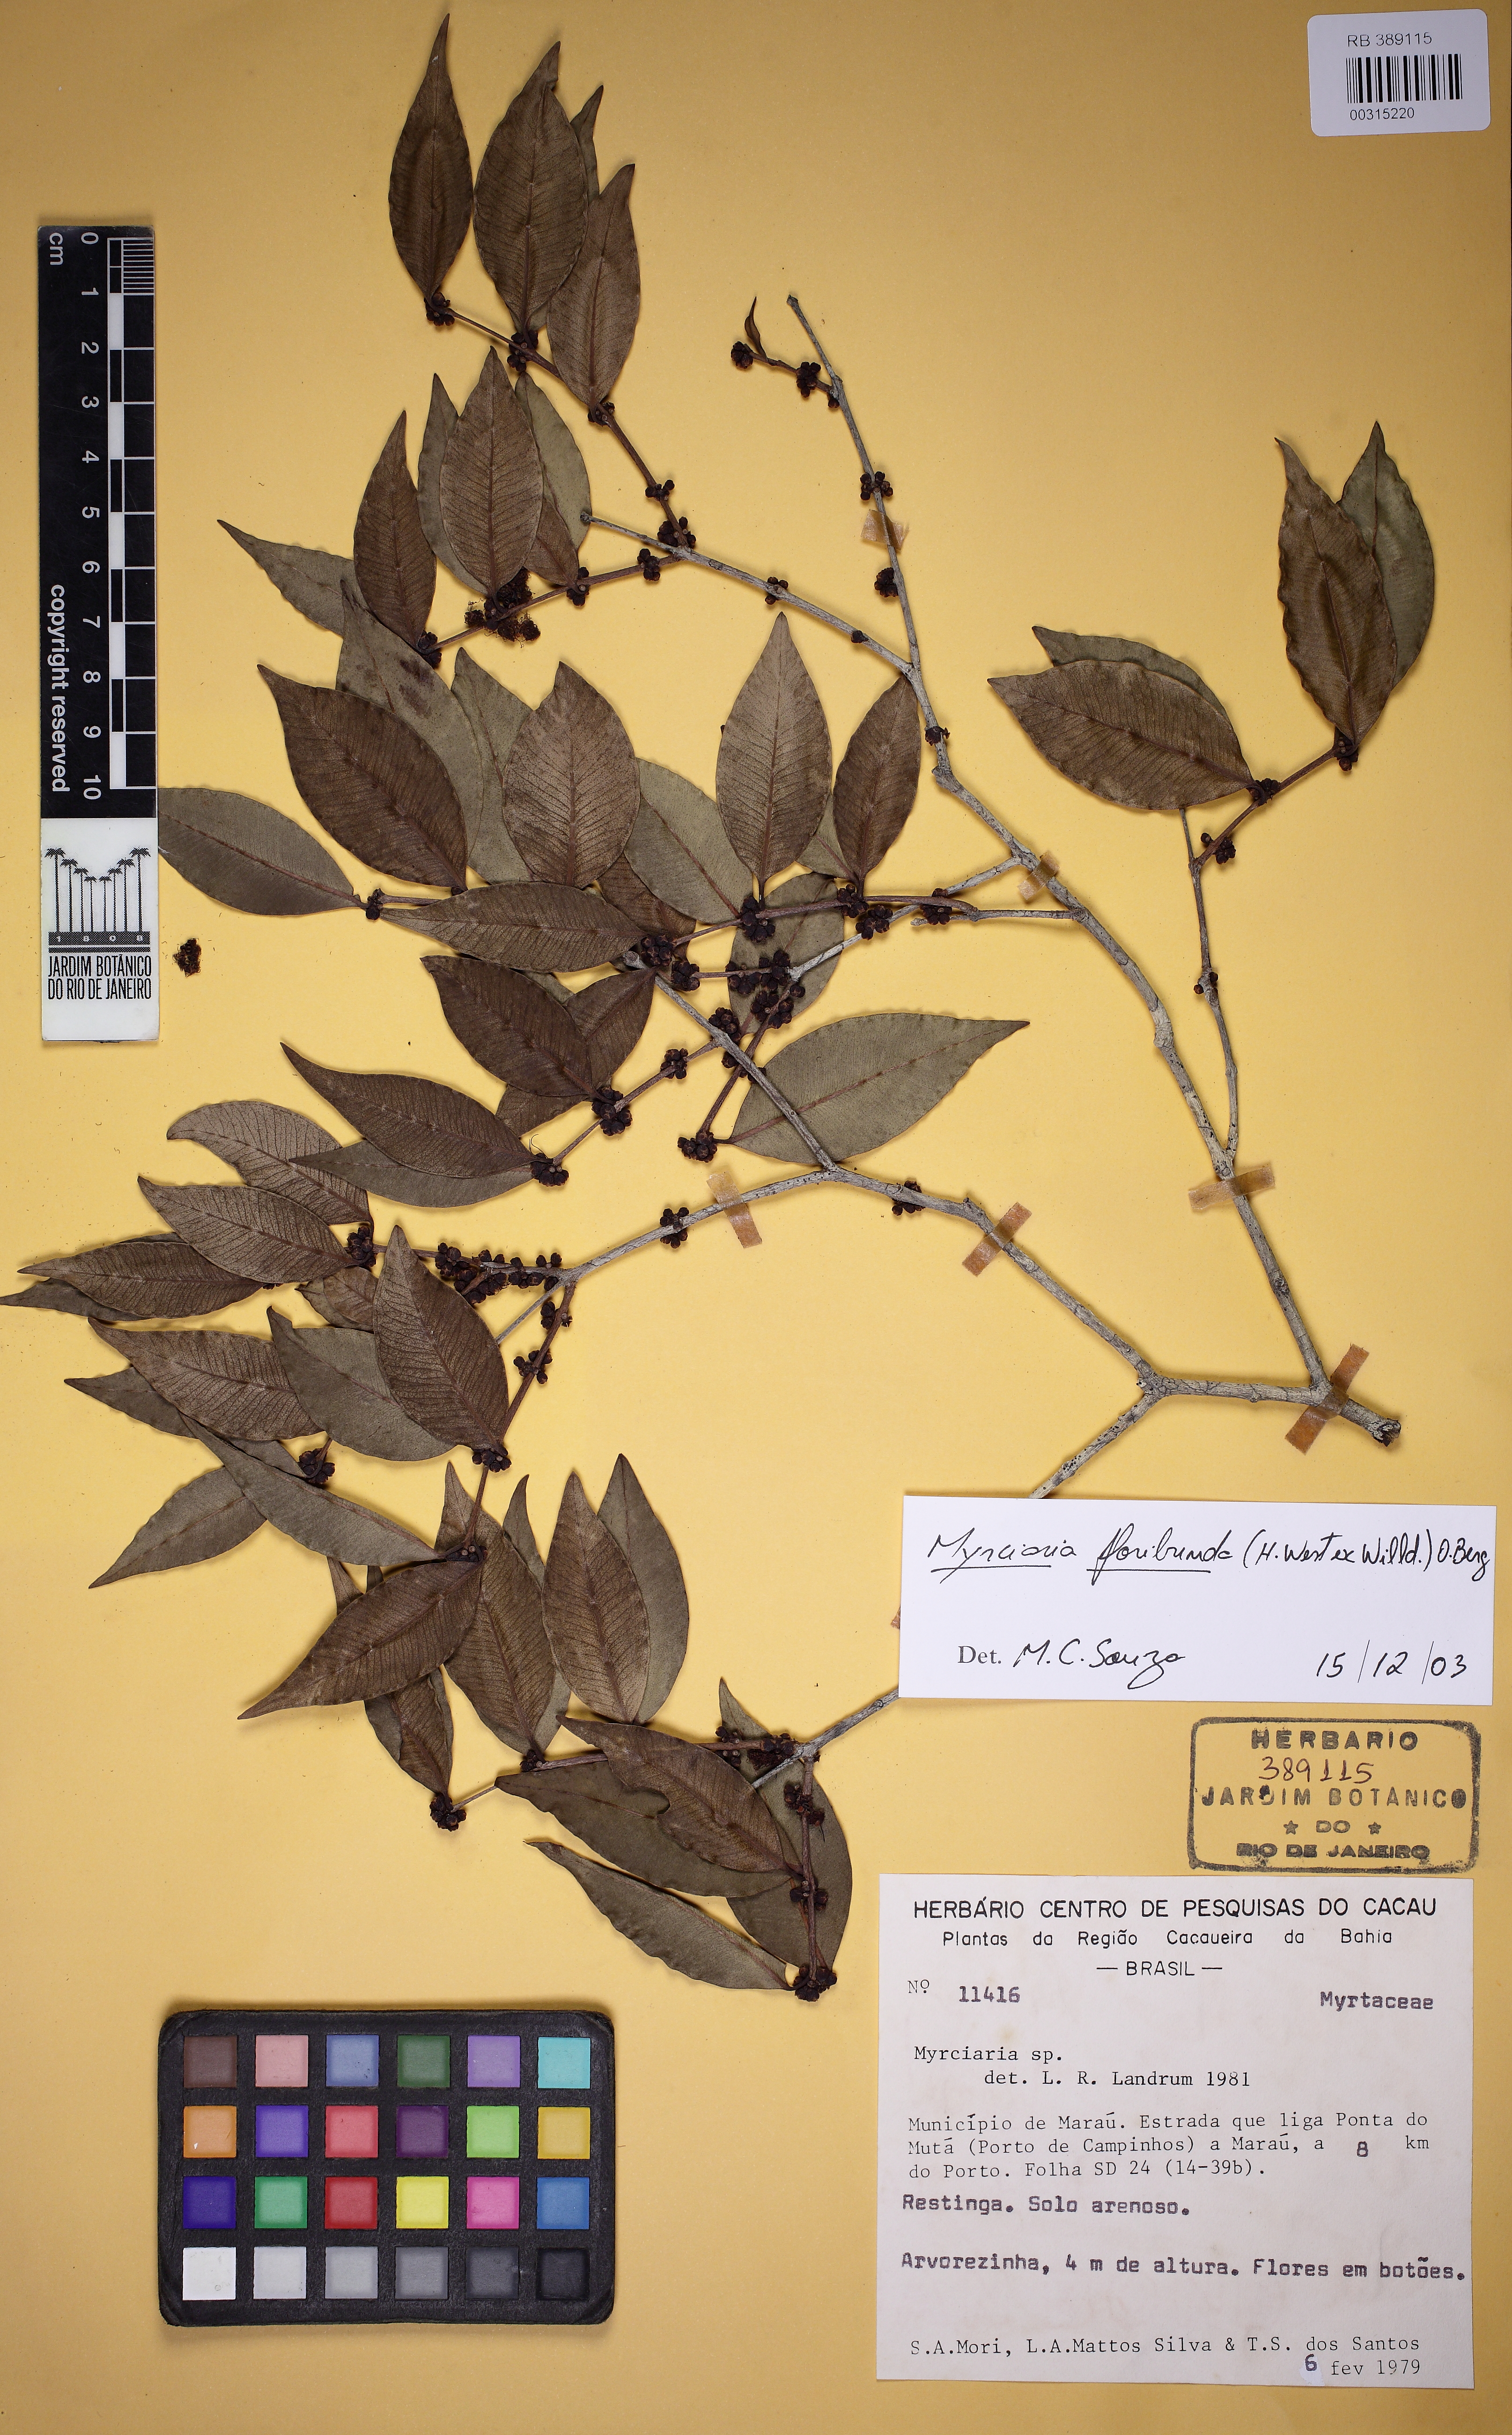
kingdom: Plantae
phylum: Tracheophyta
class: Magnoliopsida
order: Myrtales
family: Myrtaceae
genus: Myrciaria
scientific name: Myrciaria floribunda
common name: Guavaberry
